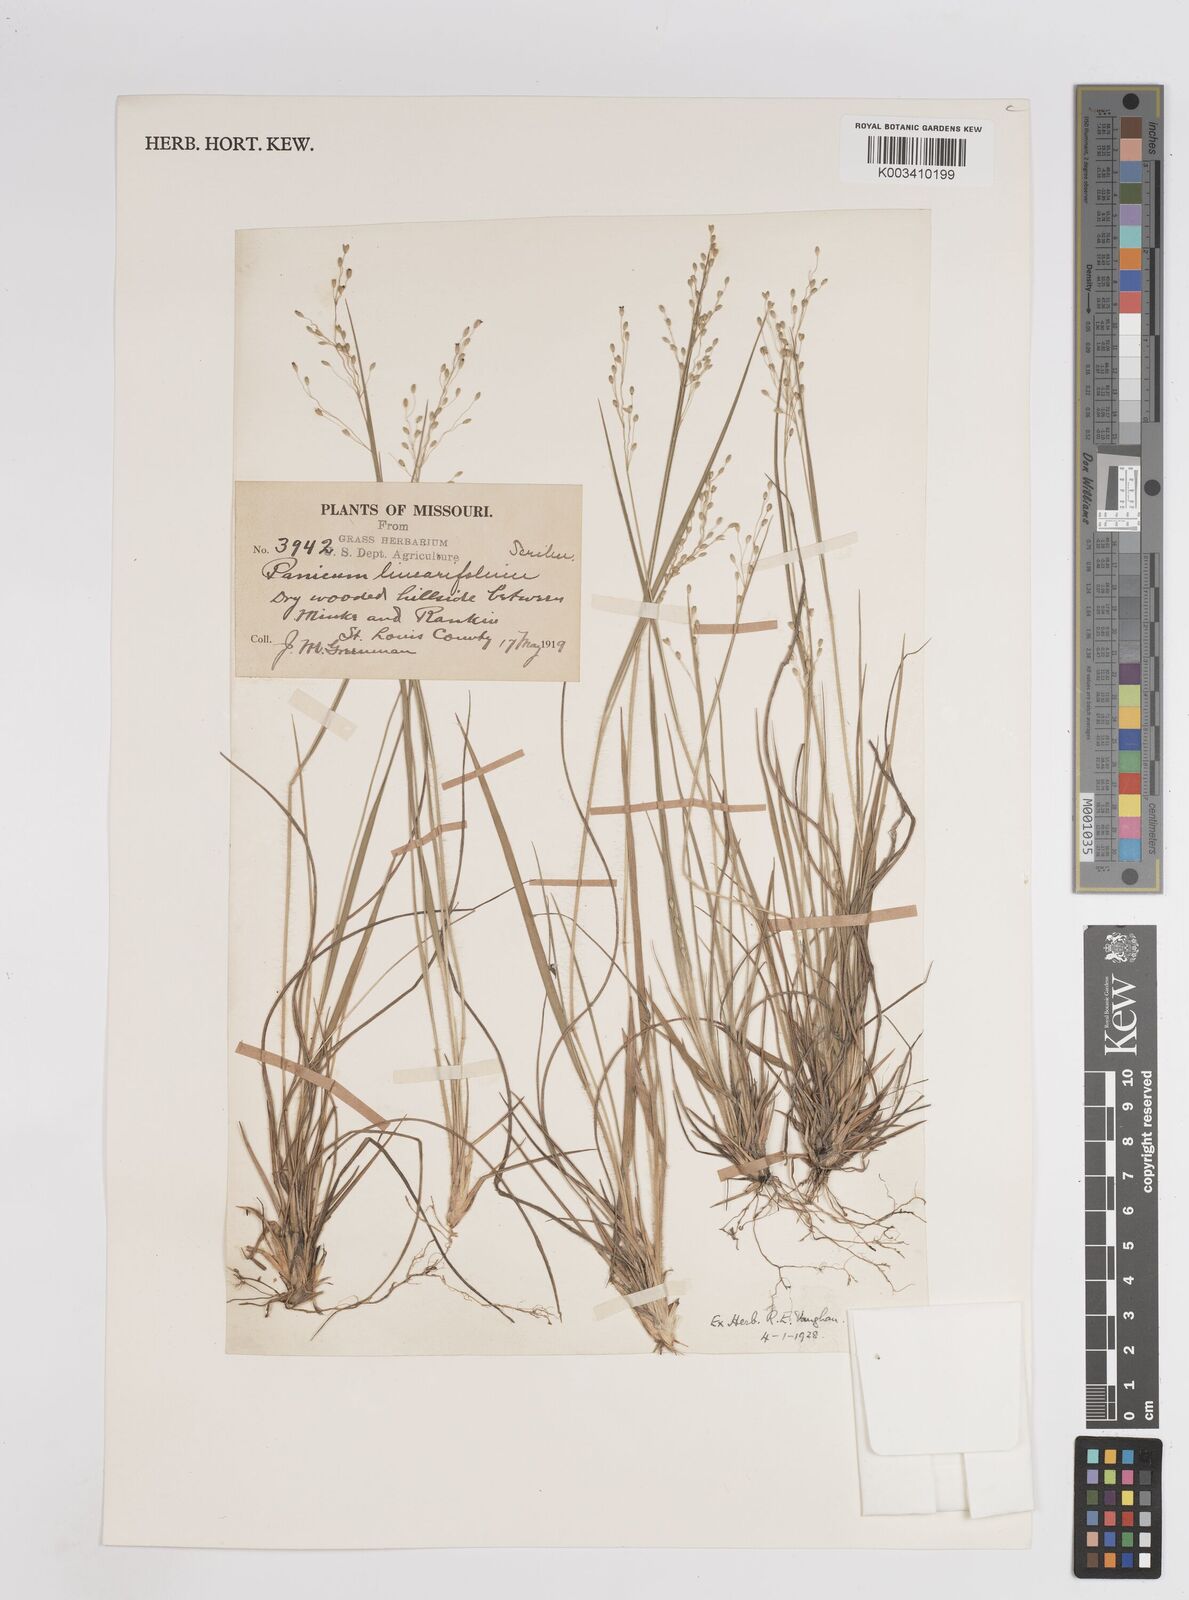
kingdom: Plantae
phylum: Tracheophyta
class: Liliopsida
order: Poales
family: Poaceae
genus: Dichanthelium
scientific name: Dichanthelium linearifolium
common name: Linear-leaved panicgrass
